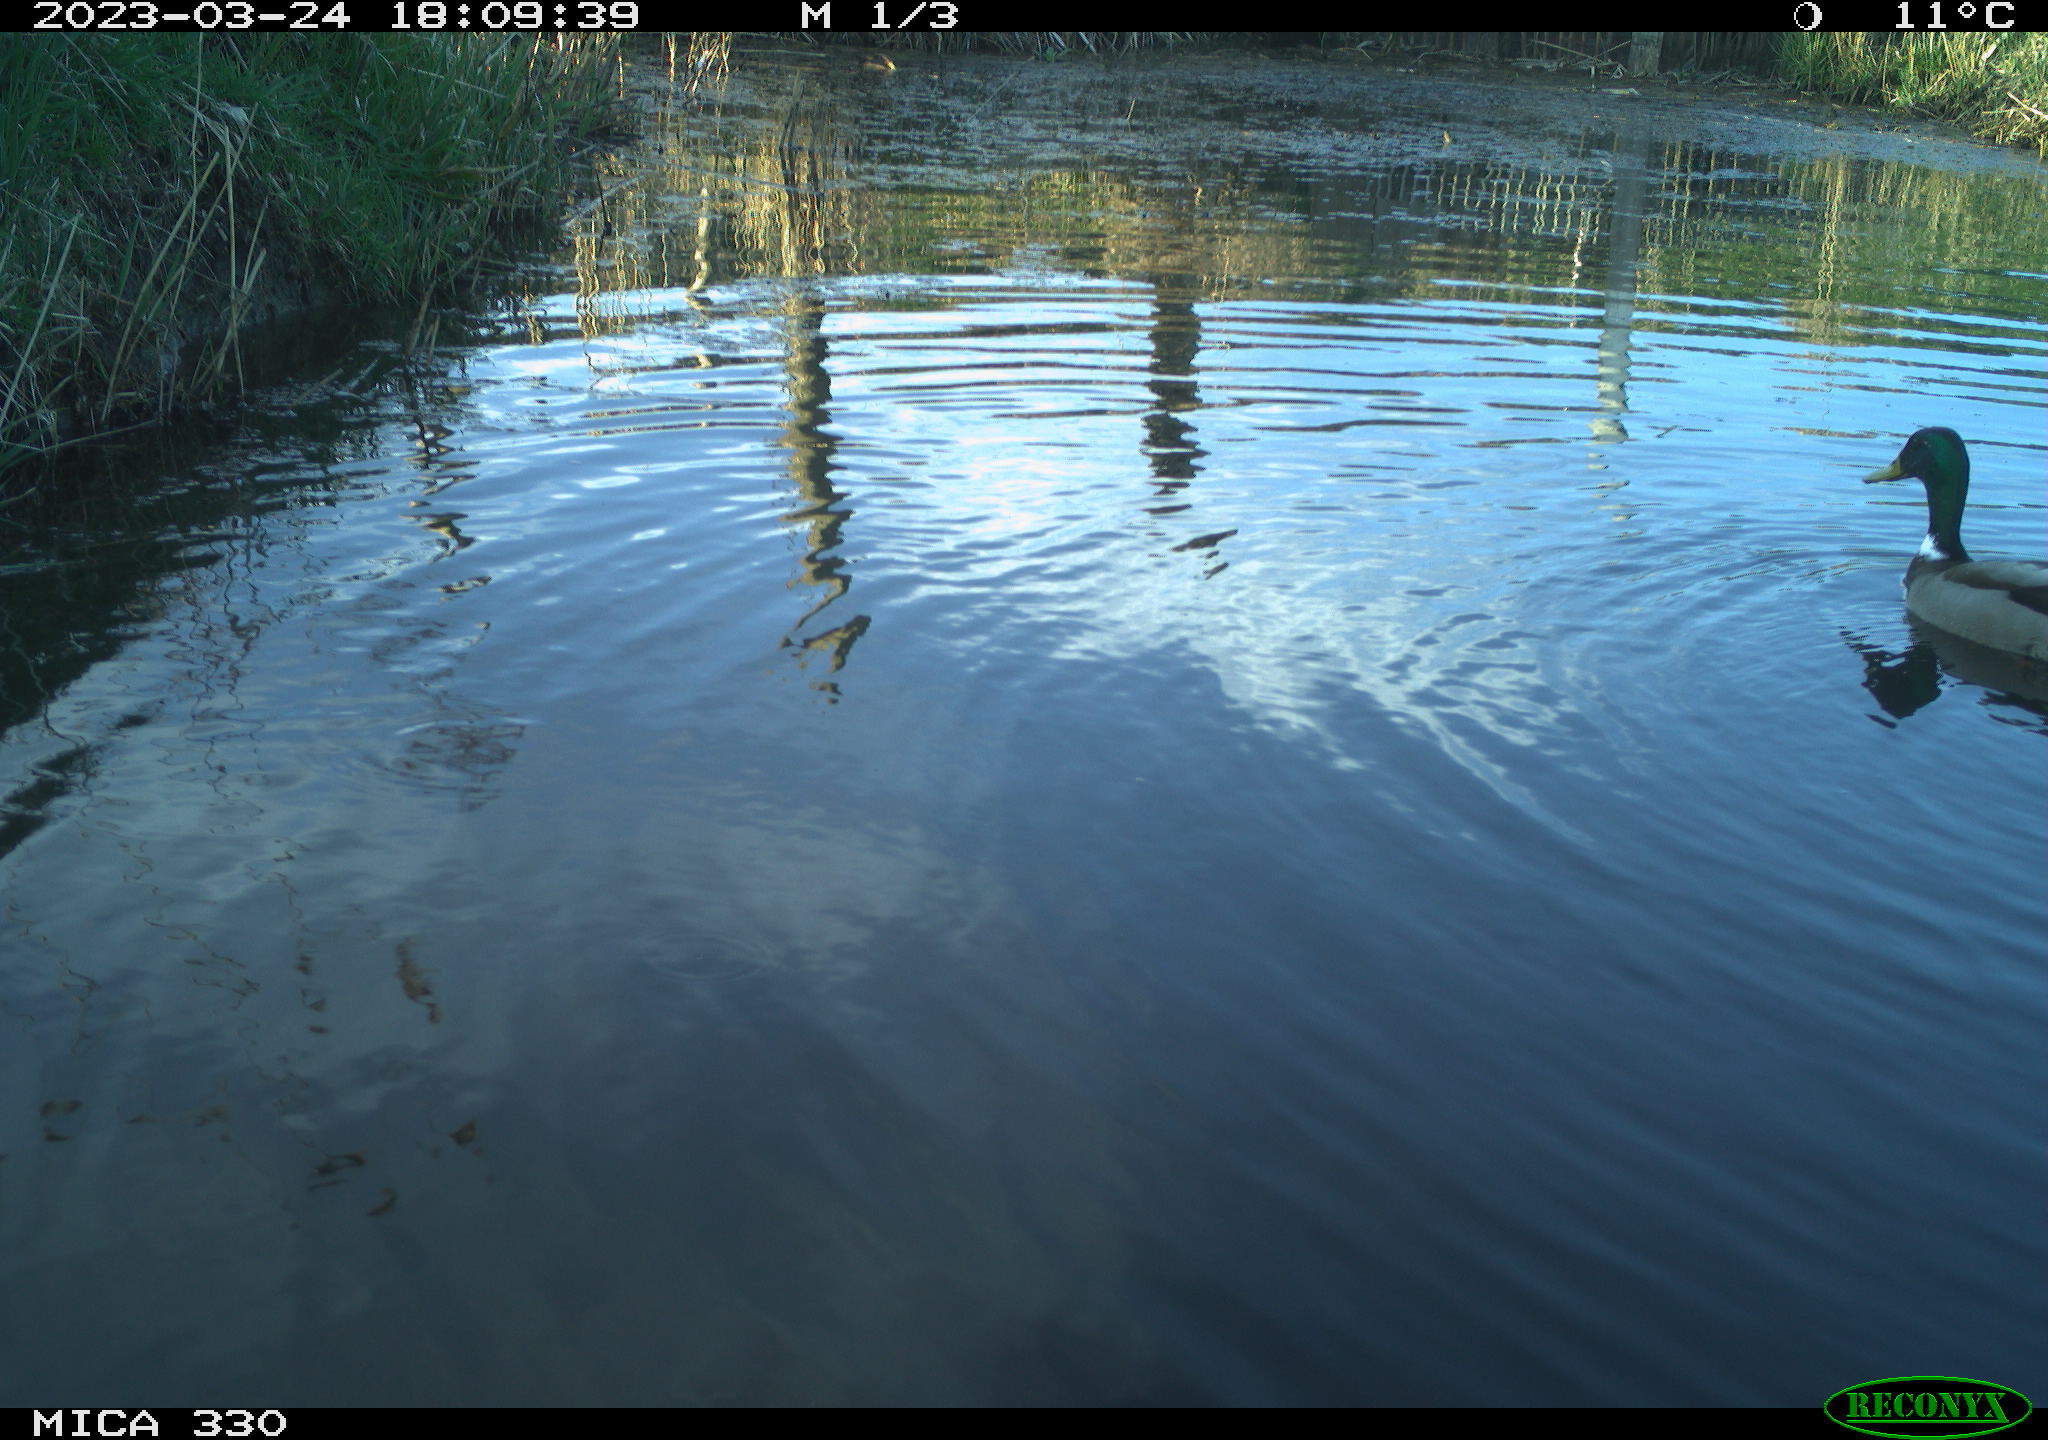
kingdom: Animalia
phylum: Chordata
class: Aves
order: Anseriformes
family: Anatidae
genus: Anas
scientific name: Anas
